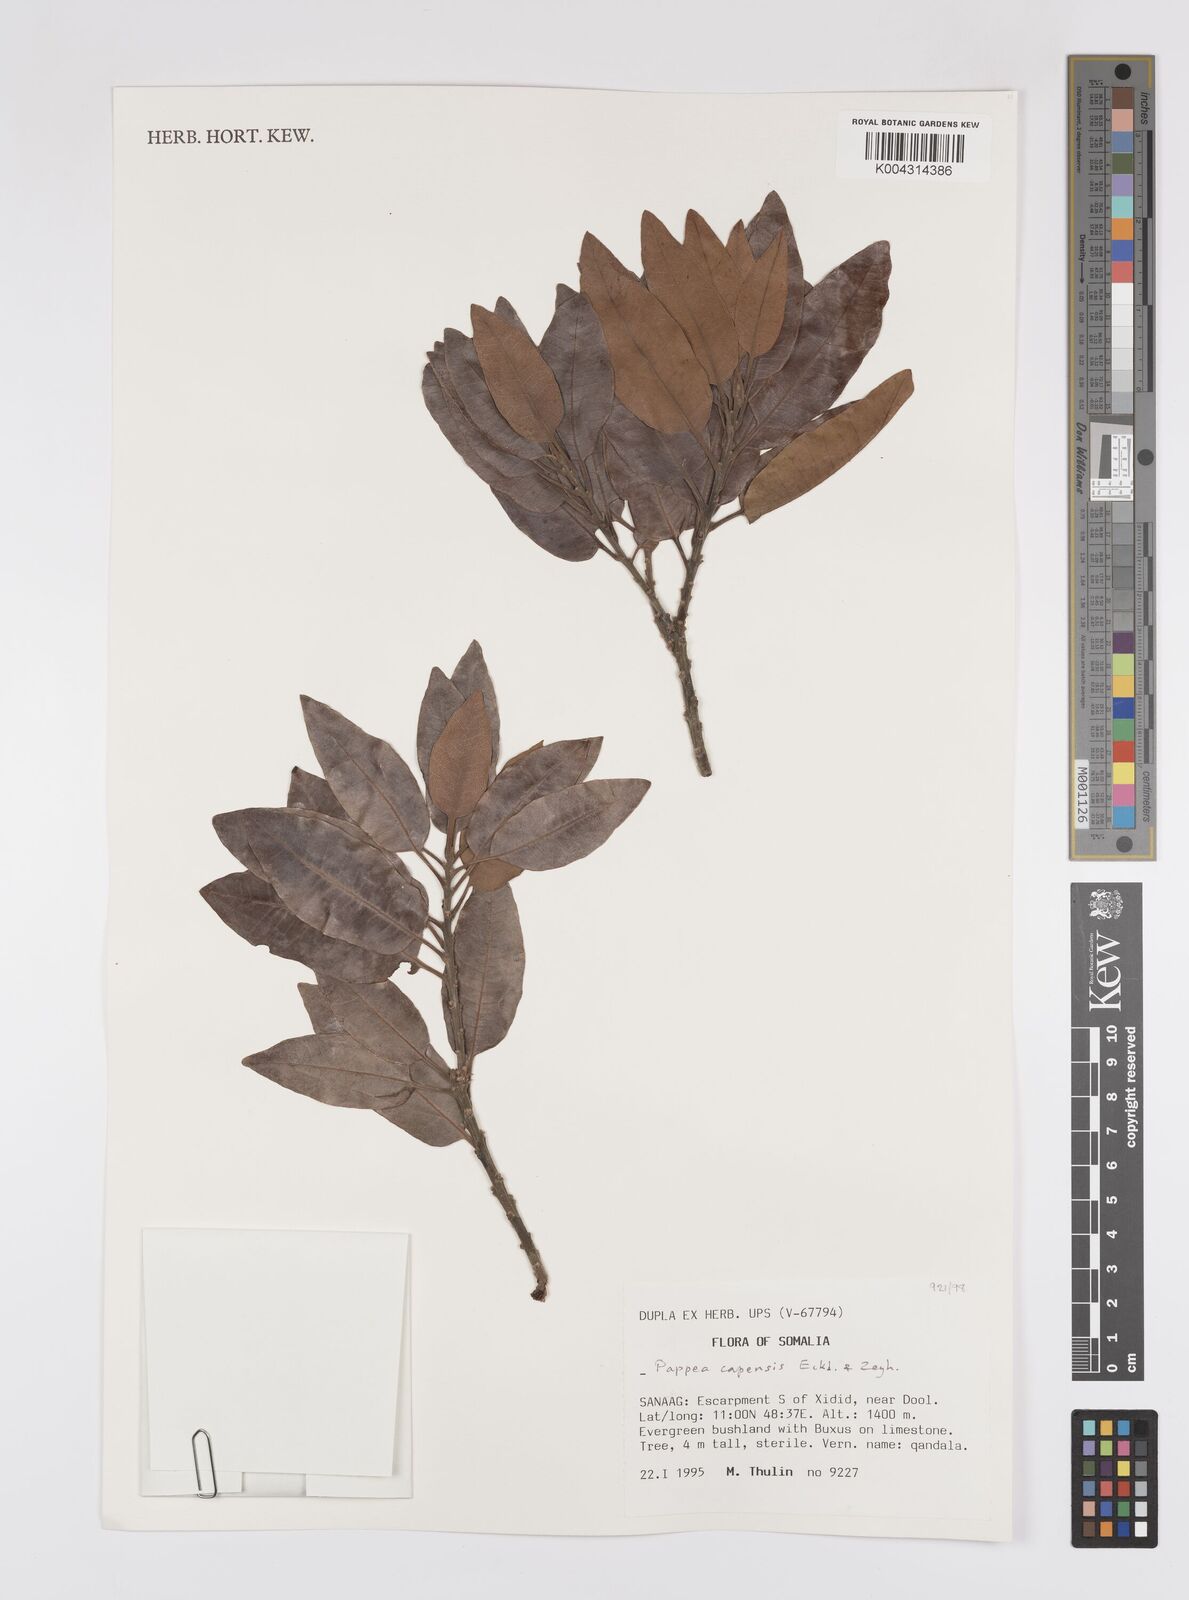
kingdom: Plantae
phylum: Tracheophyta
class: Magnoliopsida
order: Sapindales
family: Sapindaceae
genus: Pappea
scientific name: Pappea capensis
